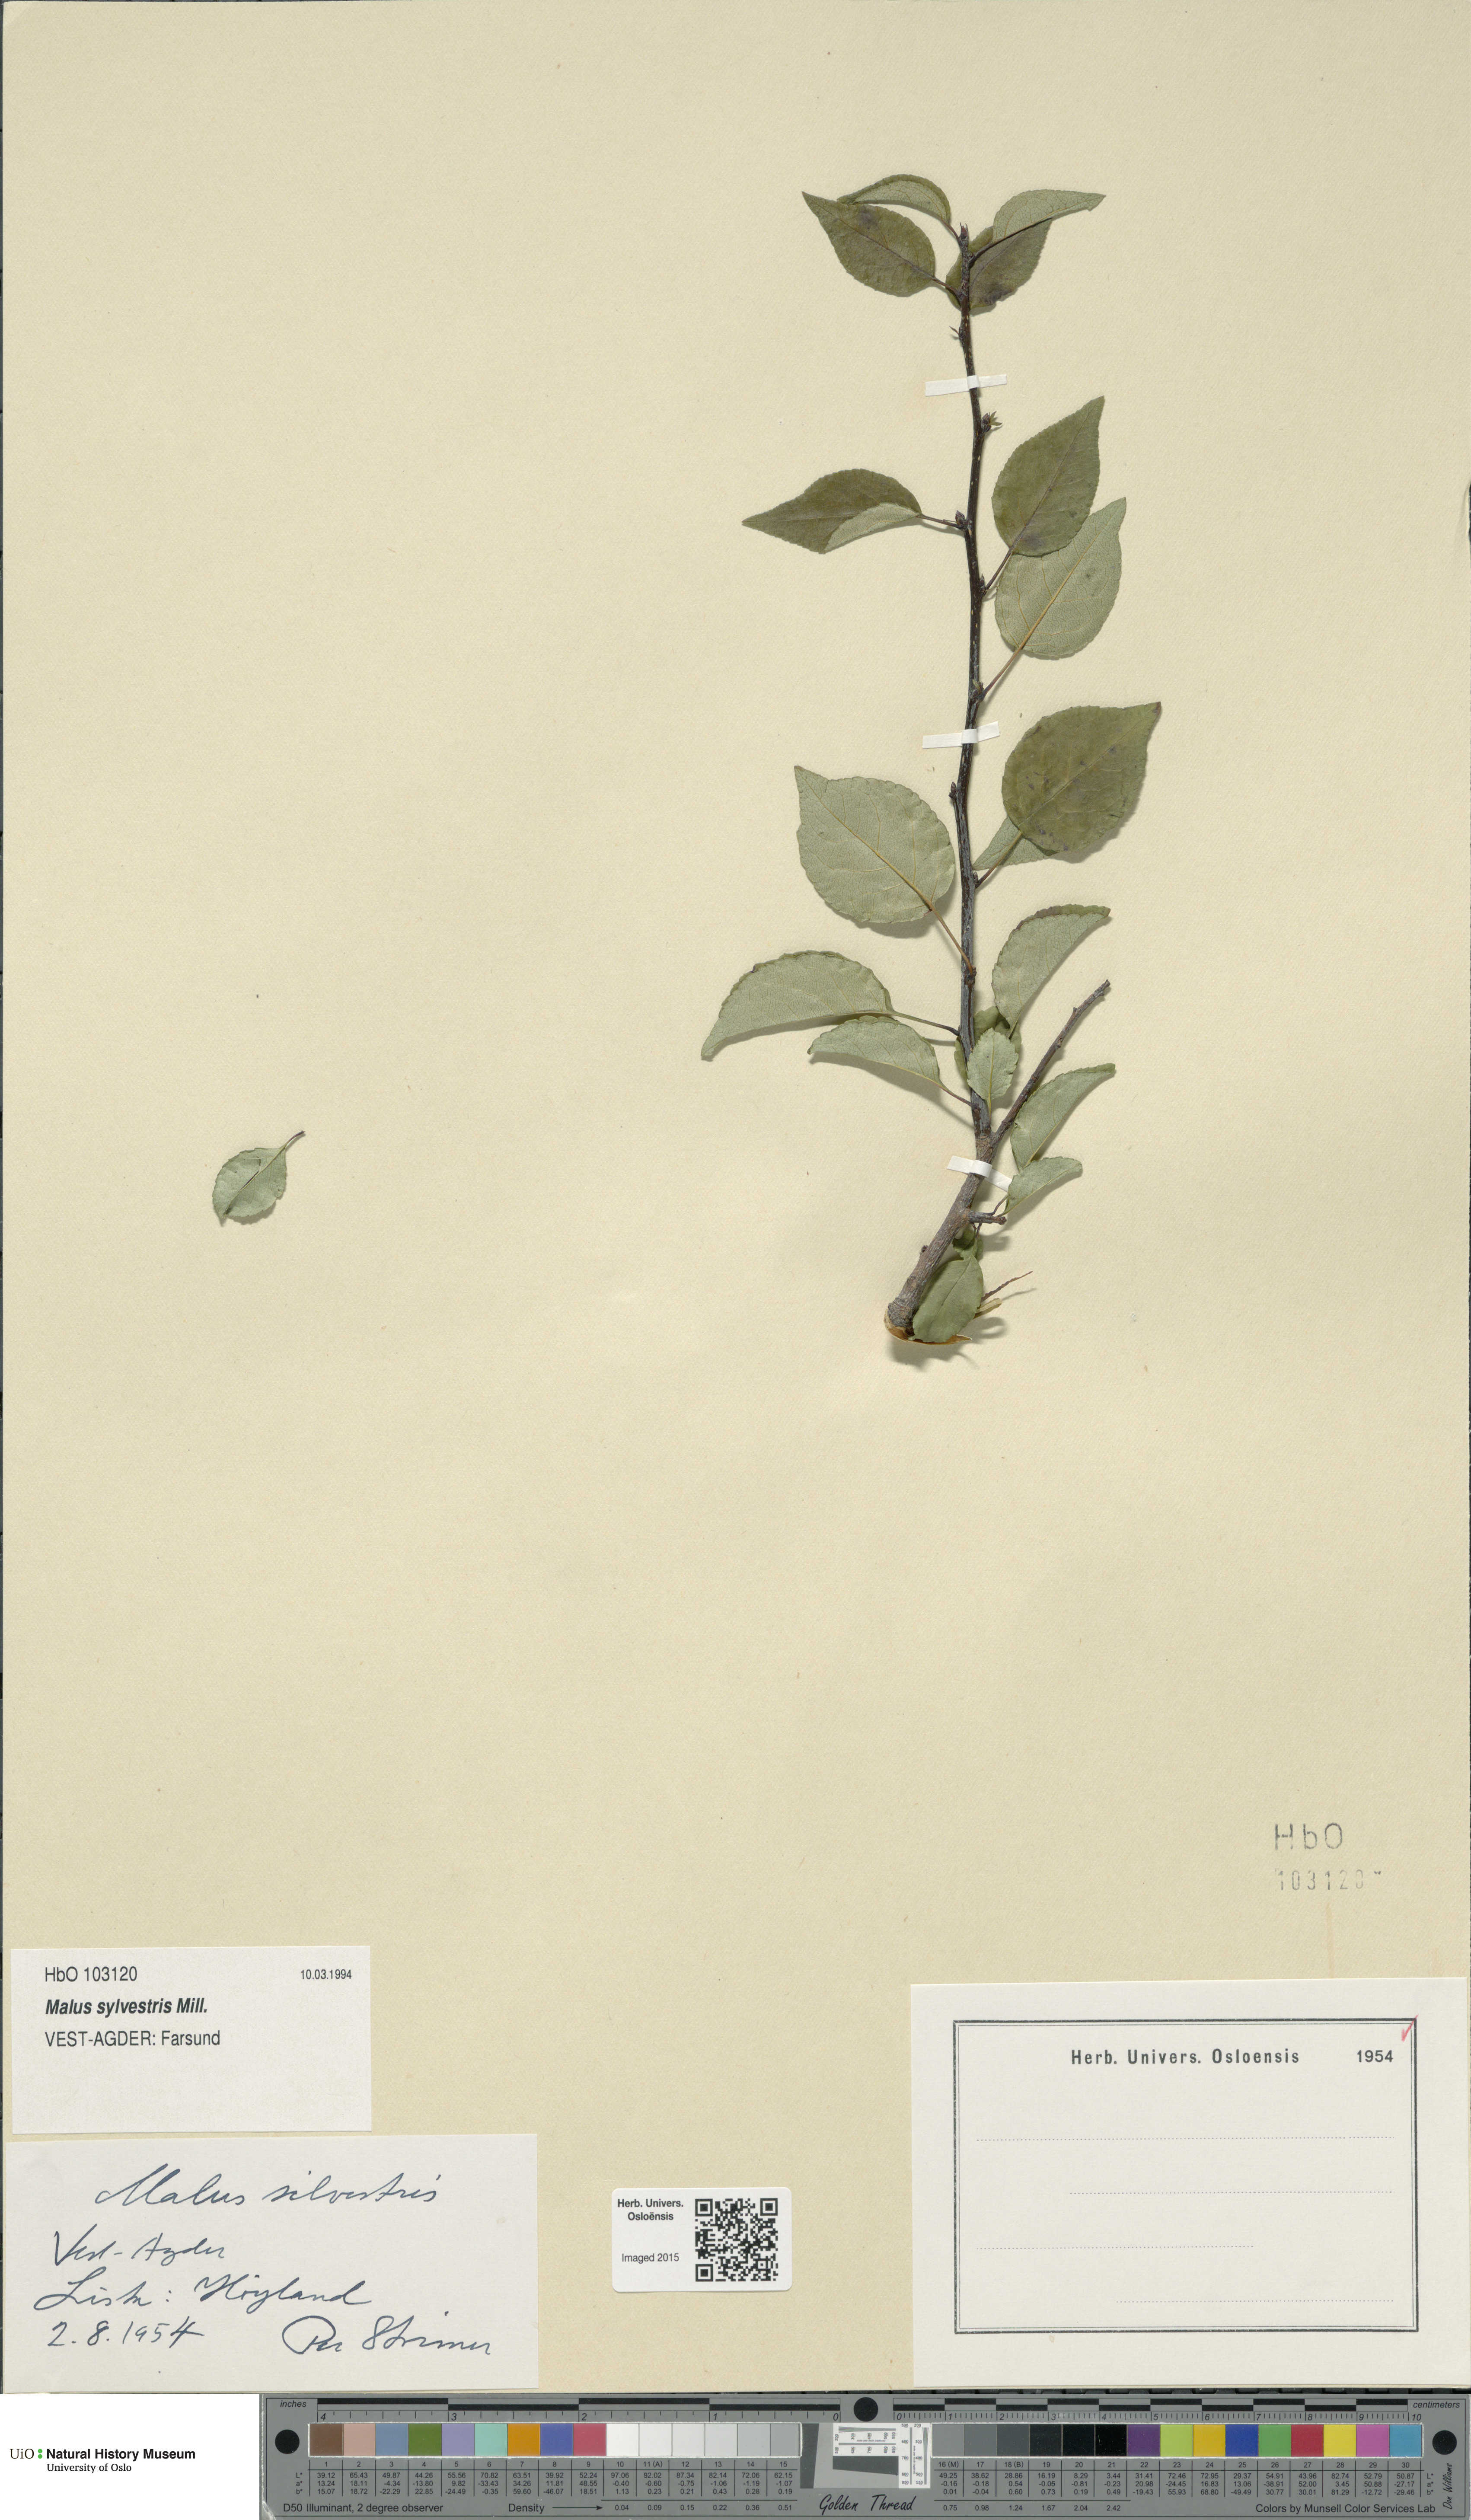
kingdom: Plantae
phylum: Tracheophyta
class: Magnoliopsida
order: Rosales
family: Rosaceae
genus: Malus
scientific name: Malus sylvestris
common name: Crab apple
